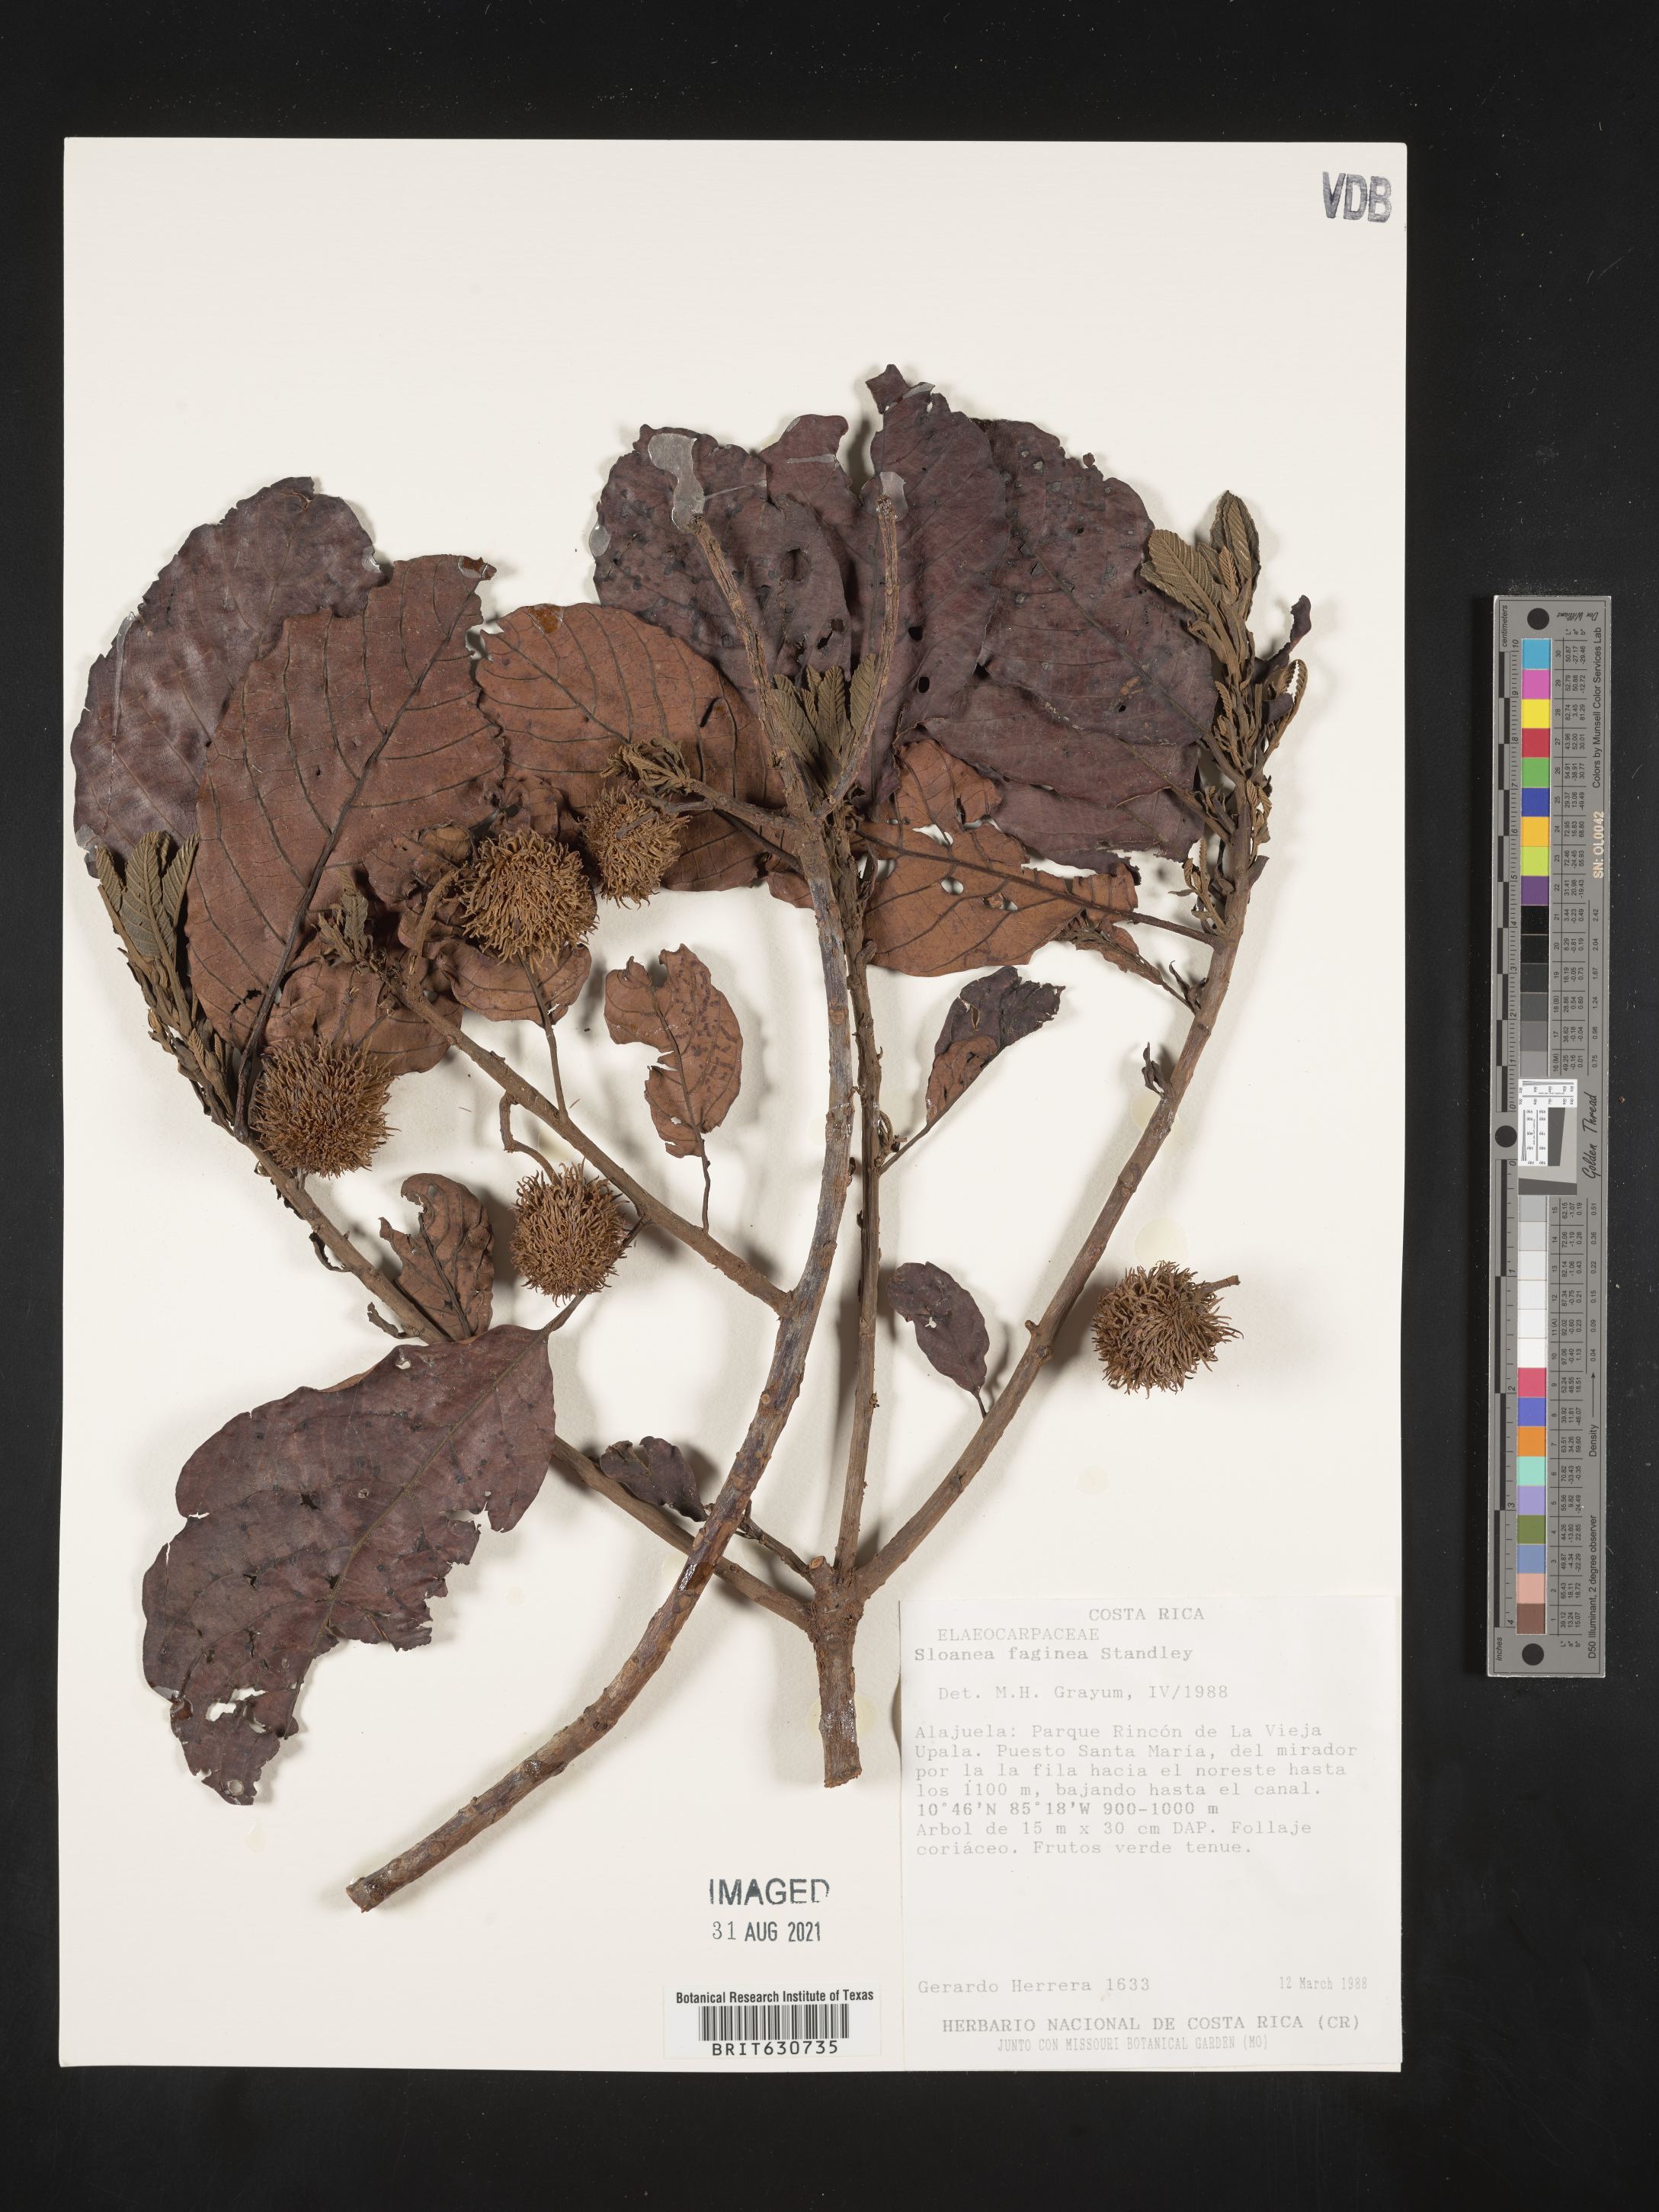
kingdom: Plantae
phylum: Tracheophyta
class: Magnoliopsida
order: Oxalidales
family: Elaeocarpaceae
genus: Sloanea
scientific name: Sloanea
